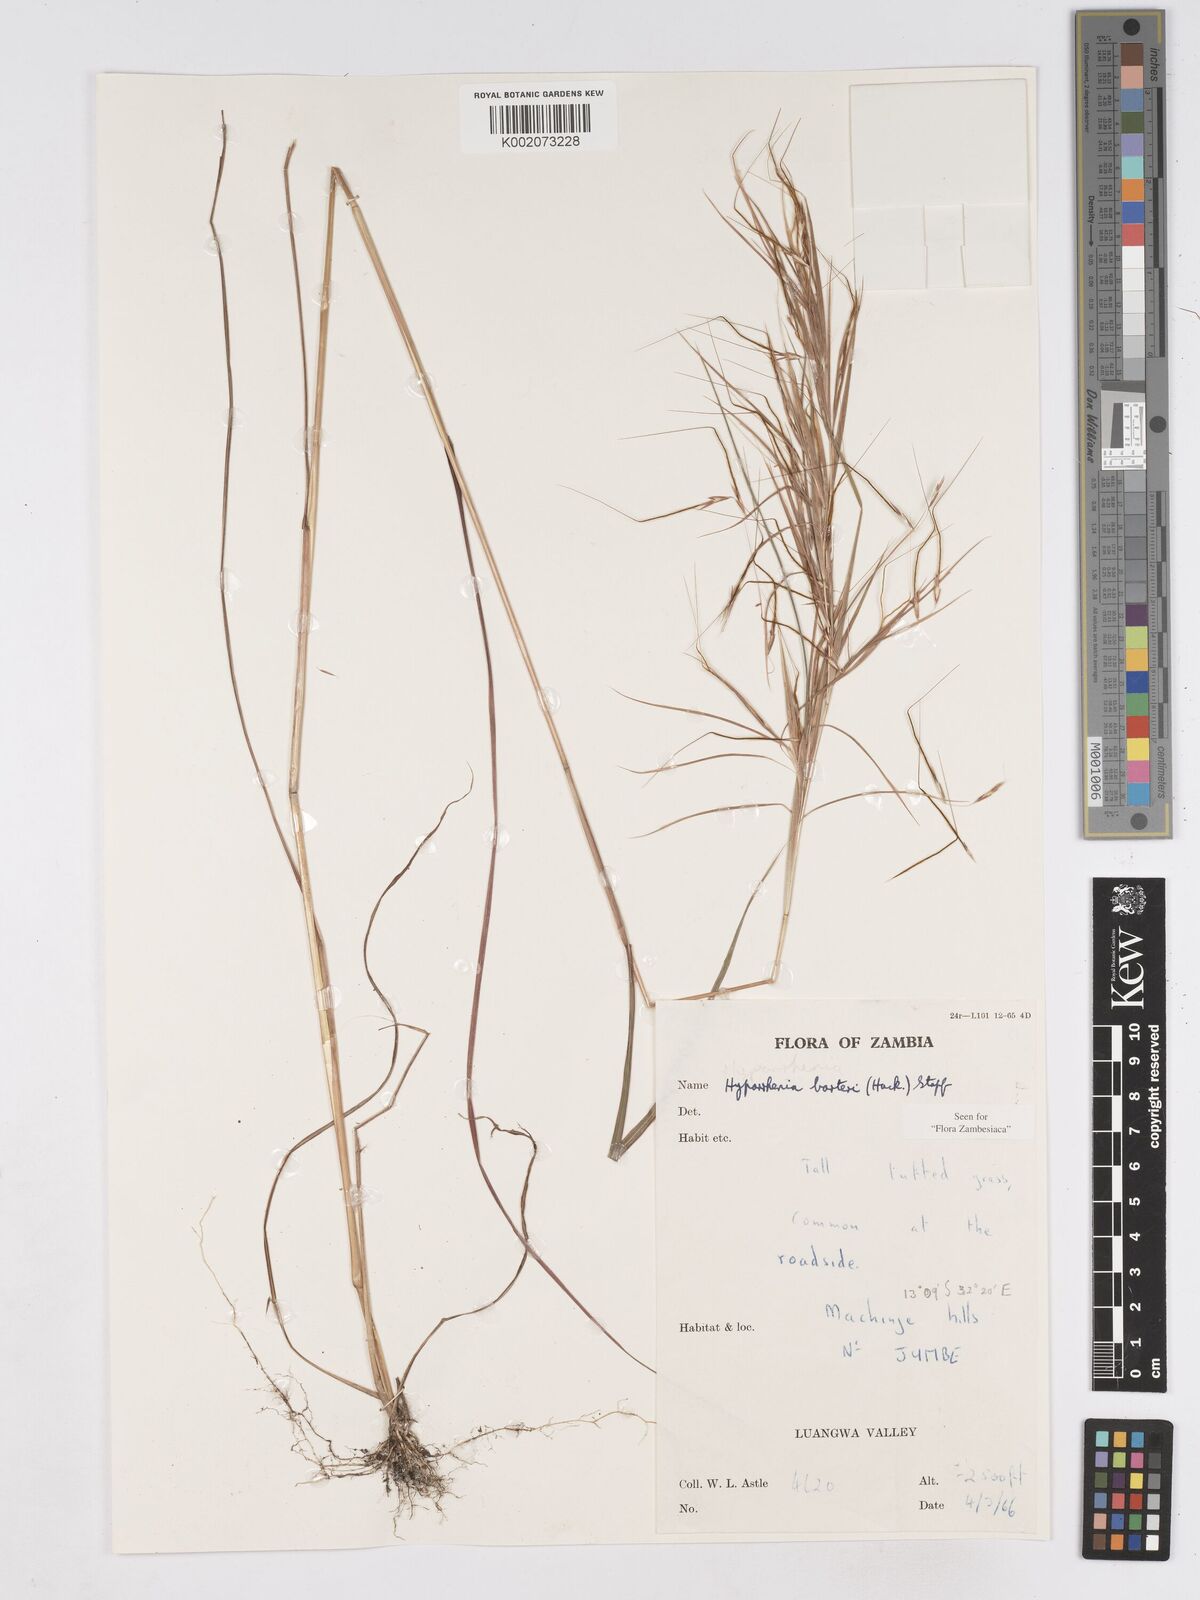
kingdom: Plantae
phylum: Tracheophyta
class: Liliopsida
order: Poales
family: Poaceae
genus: Hyparrhenia
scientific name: Hyparrhenia barteri
